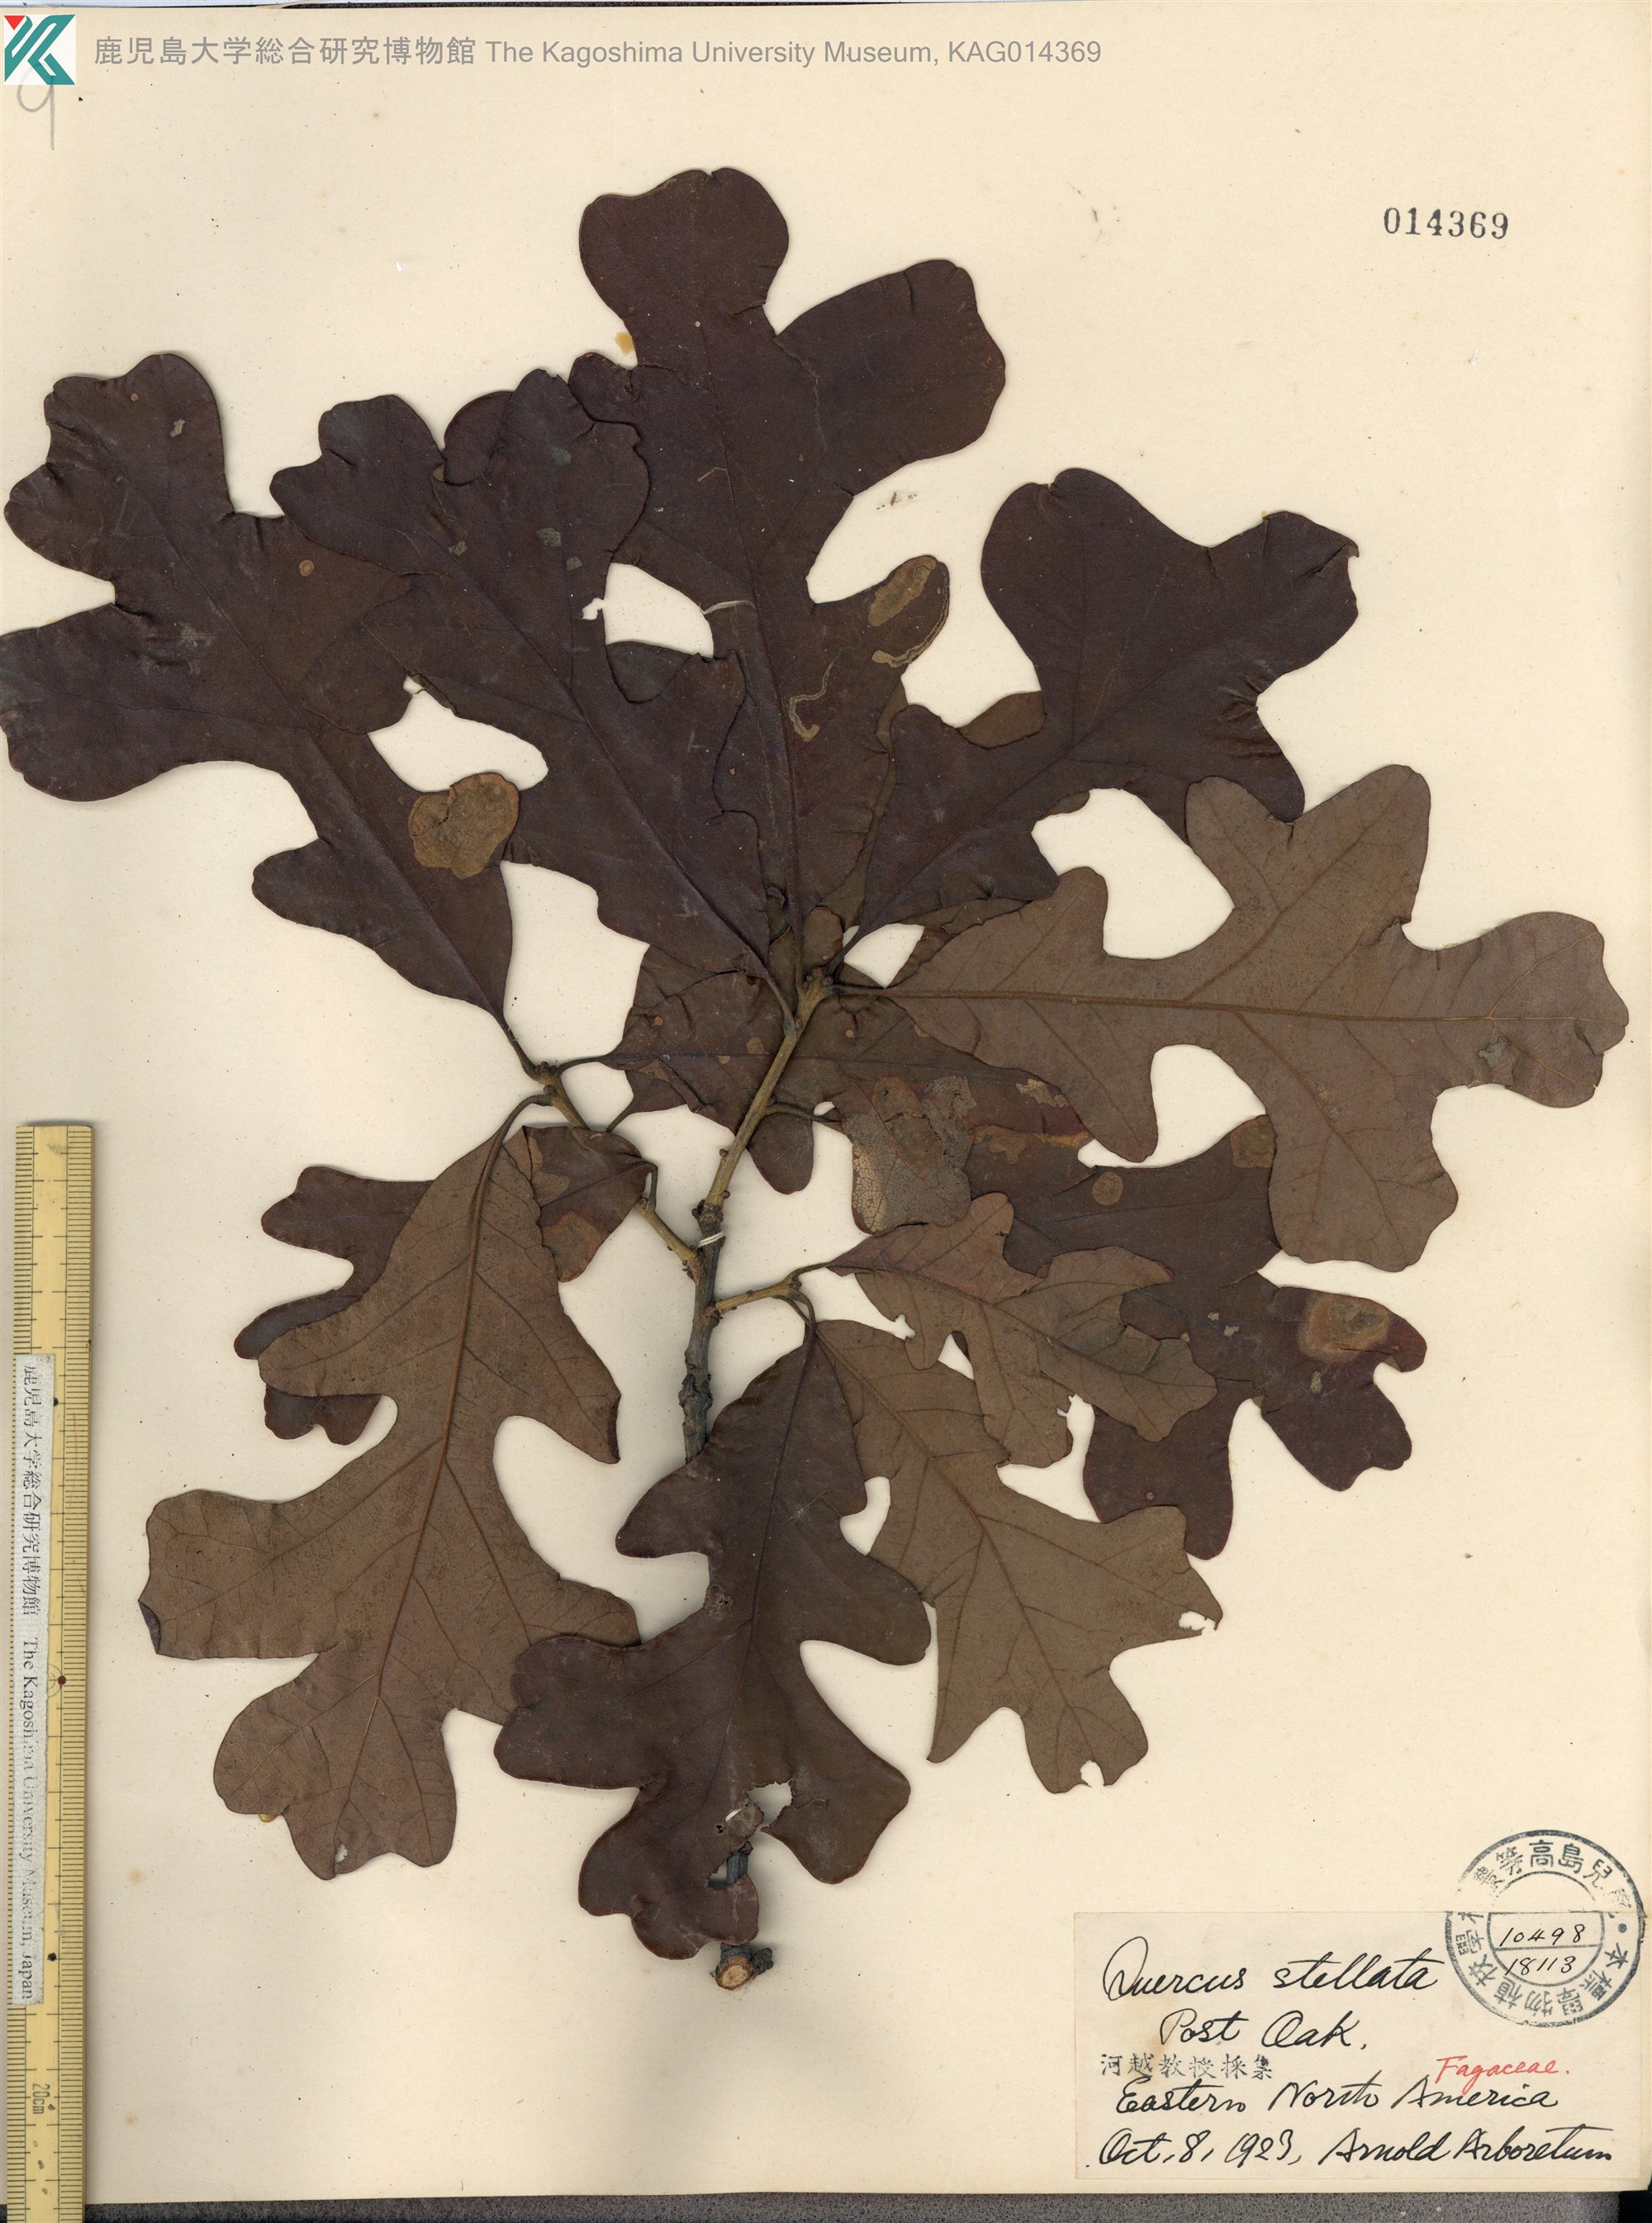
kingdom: Plantae
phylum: Tracheophyta
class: Magnoliopsida
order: Fagales
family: Fagaceae
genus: Quercus
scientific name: Quercus stellata
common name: Post oak
